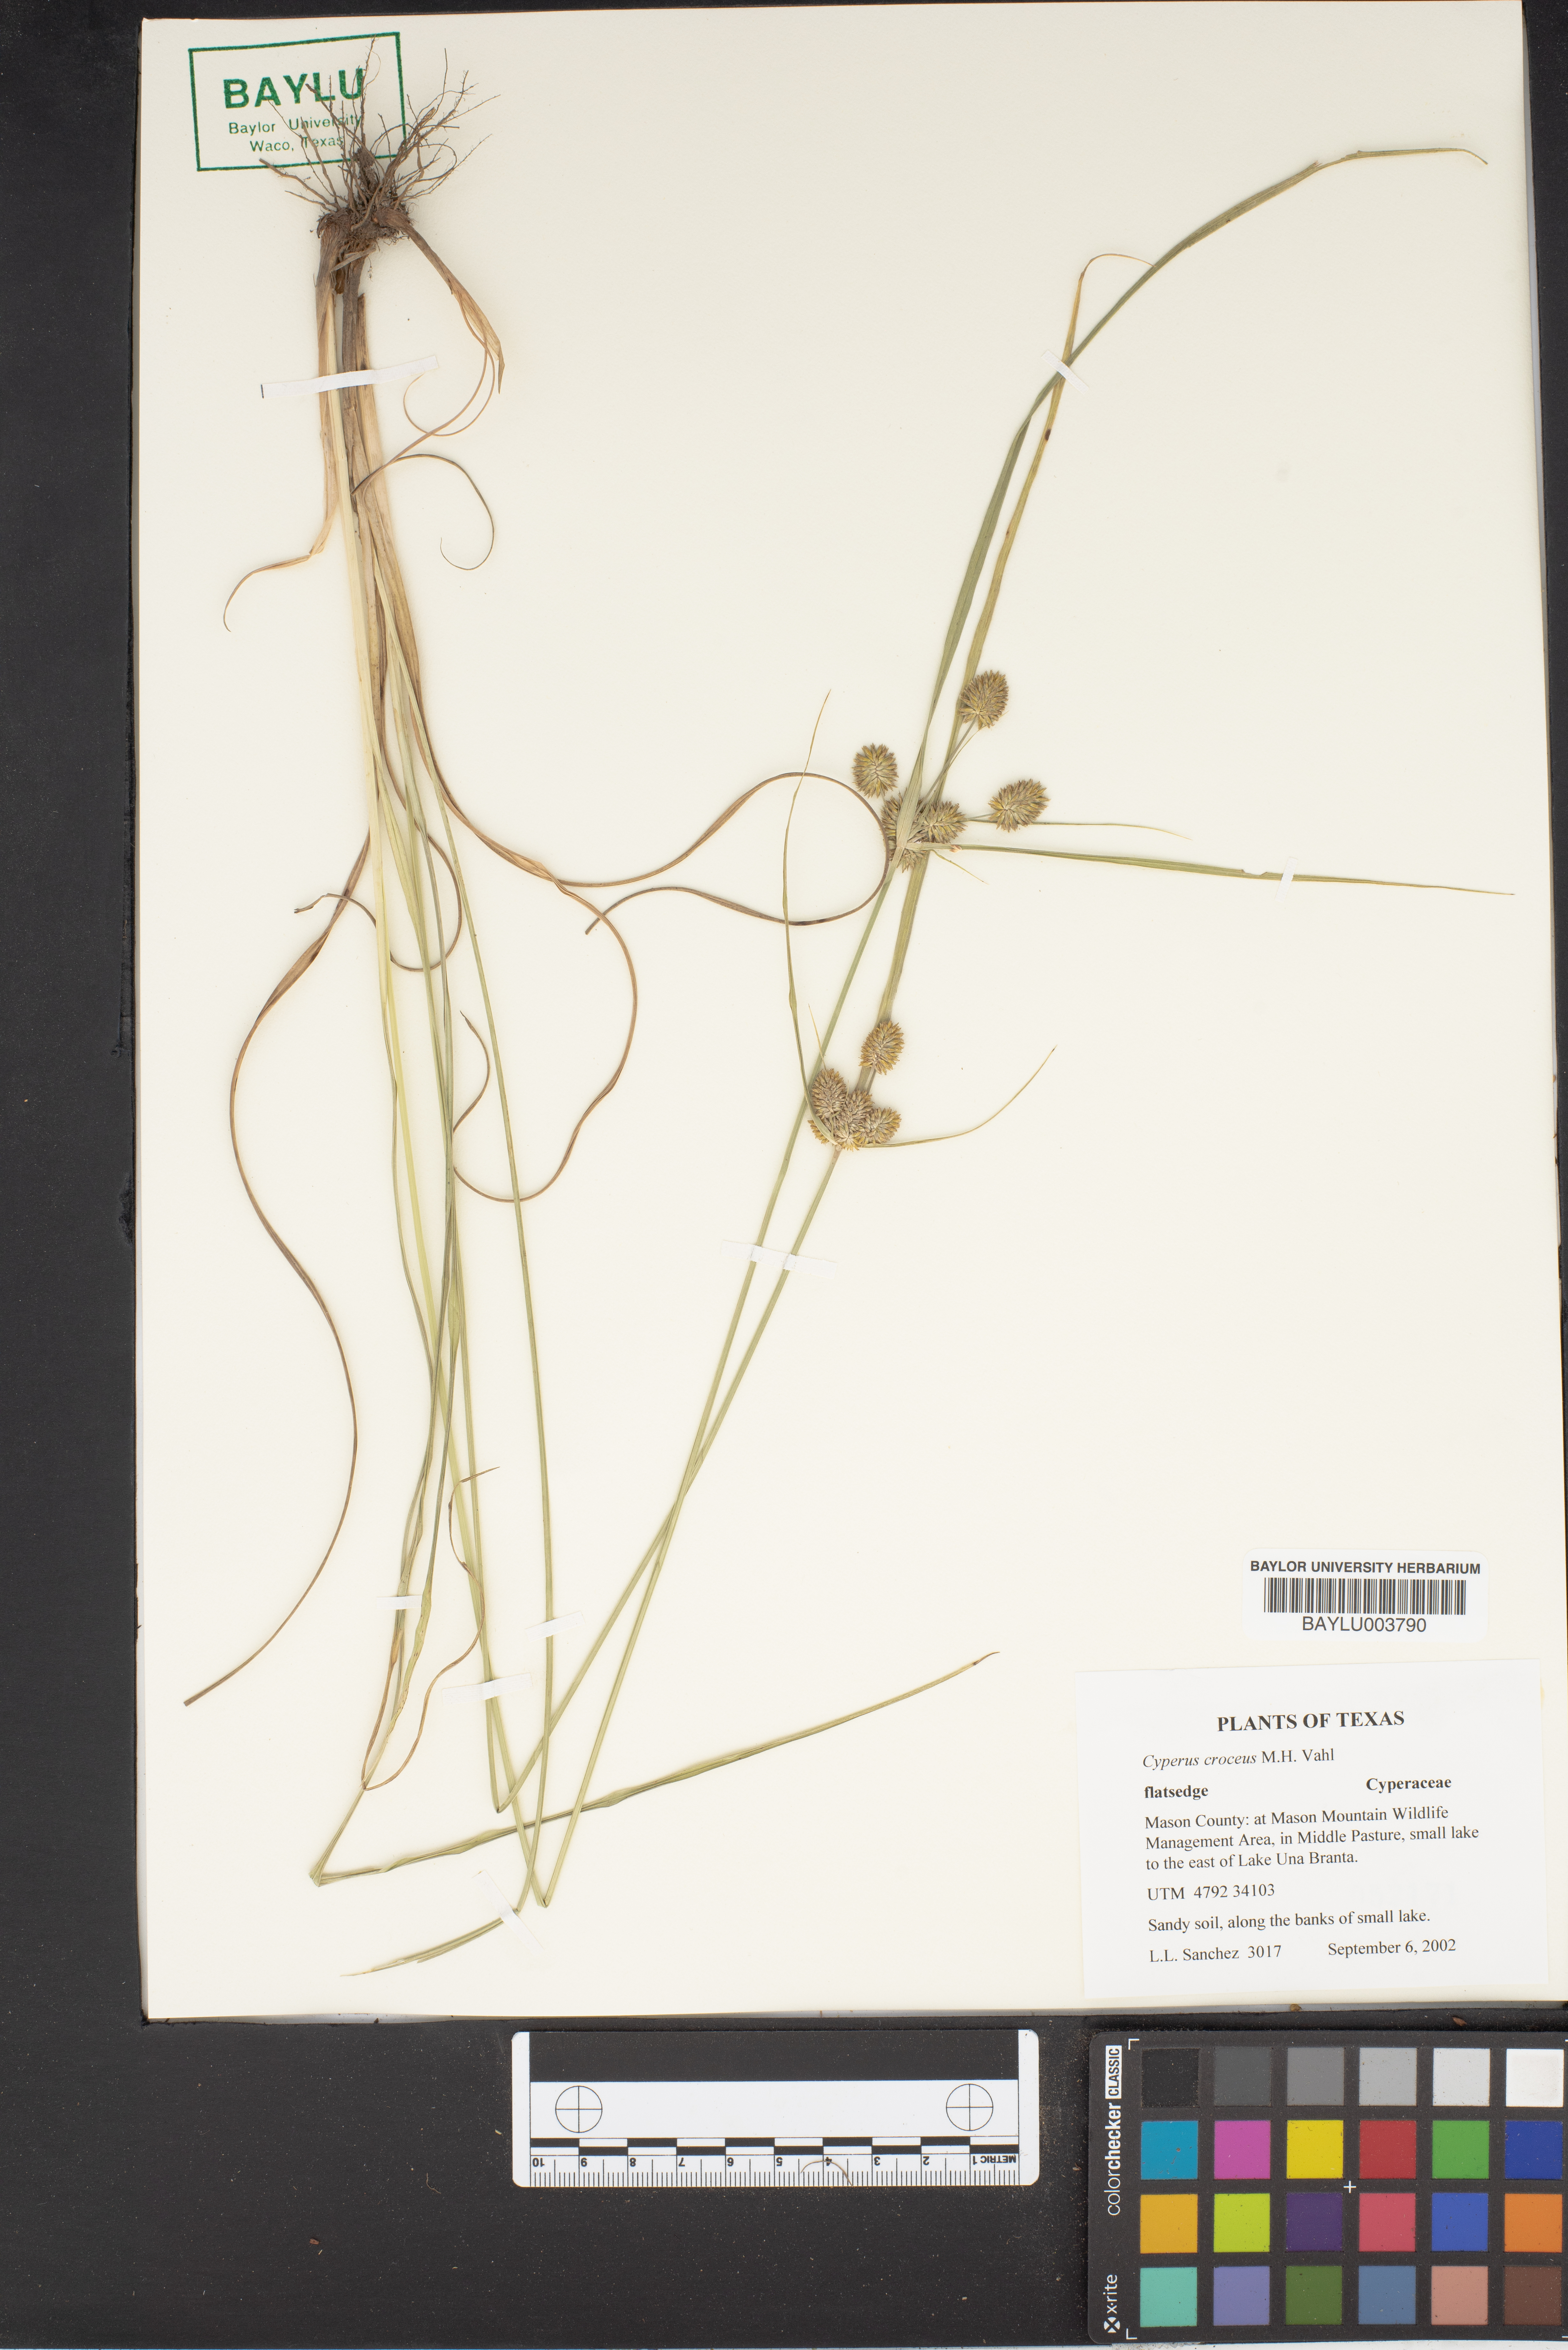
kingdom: Plantae
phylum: Tracheophyta
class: Liliopsida
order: Poales
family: Cyperaceae
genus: Cyperus
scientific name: Cyperus croceus
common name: Baldwin's flatsedge
